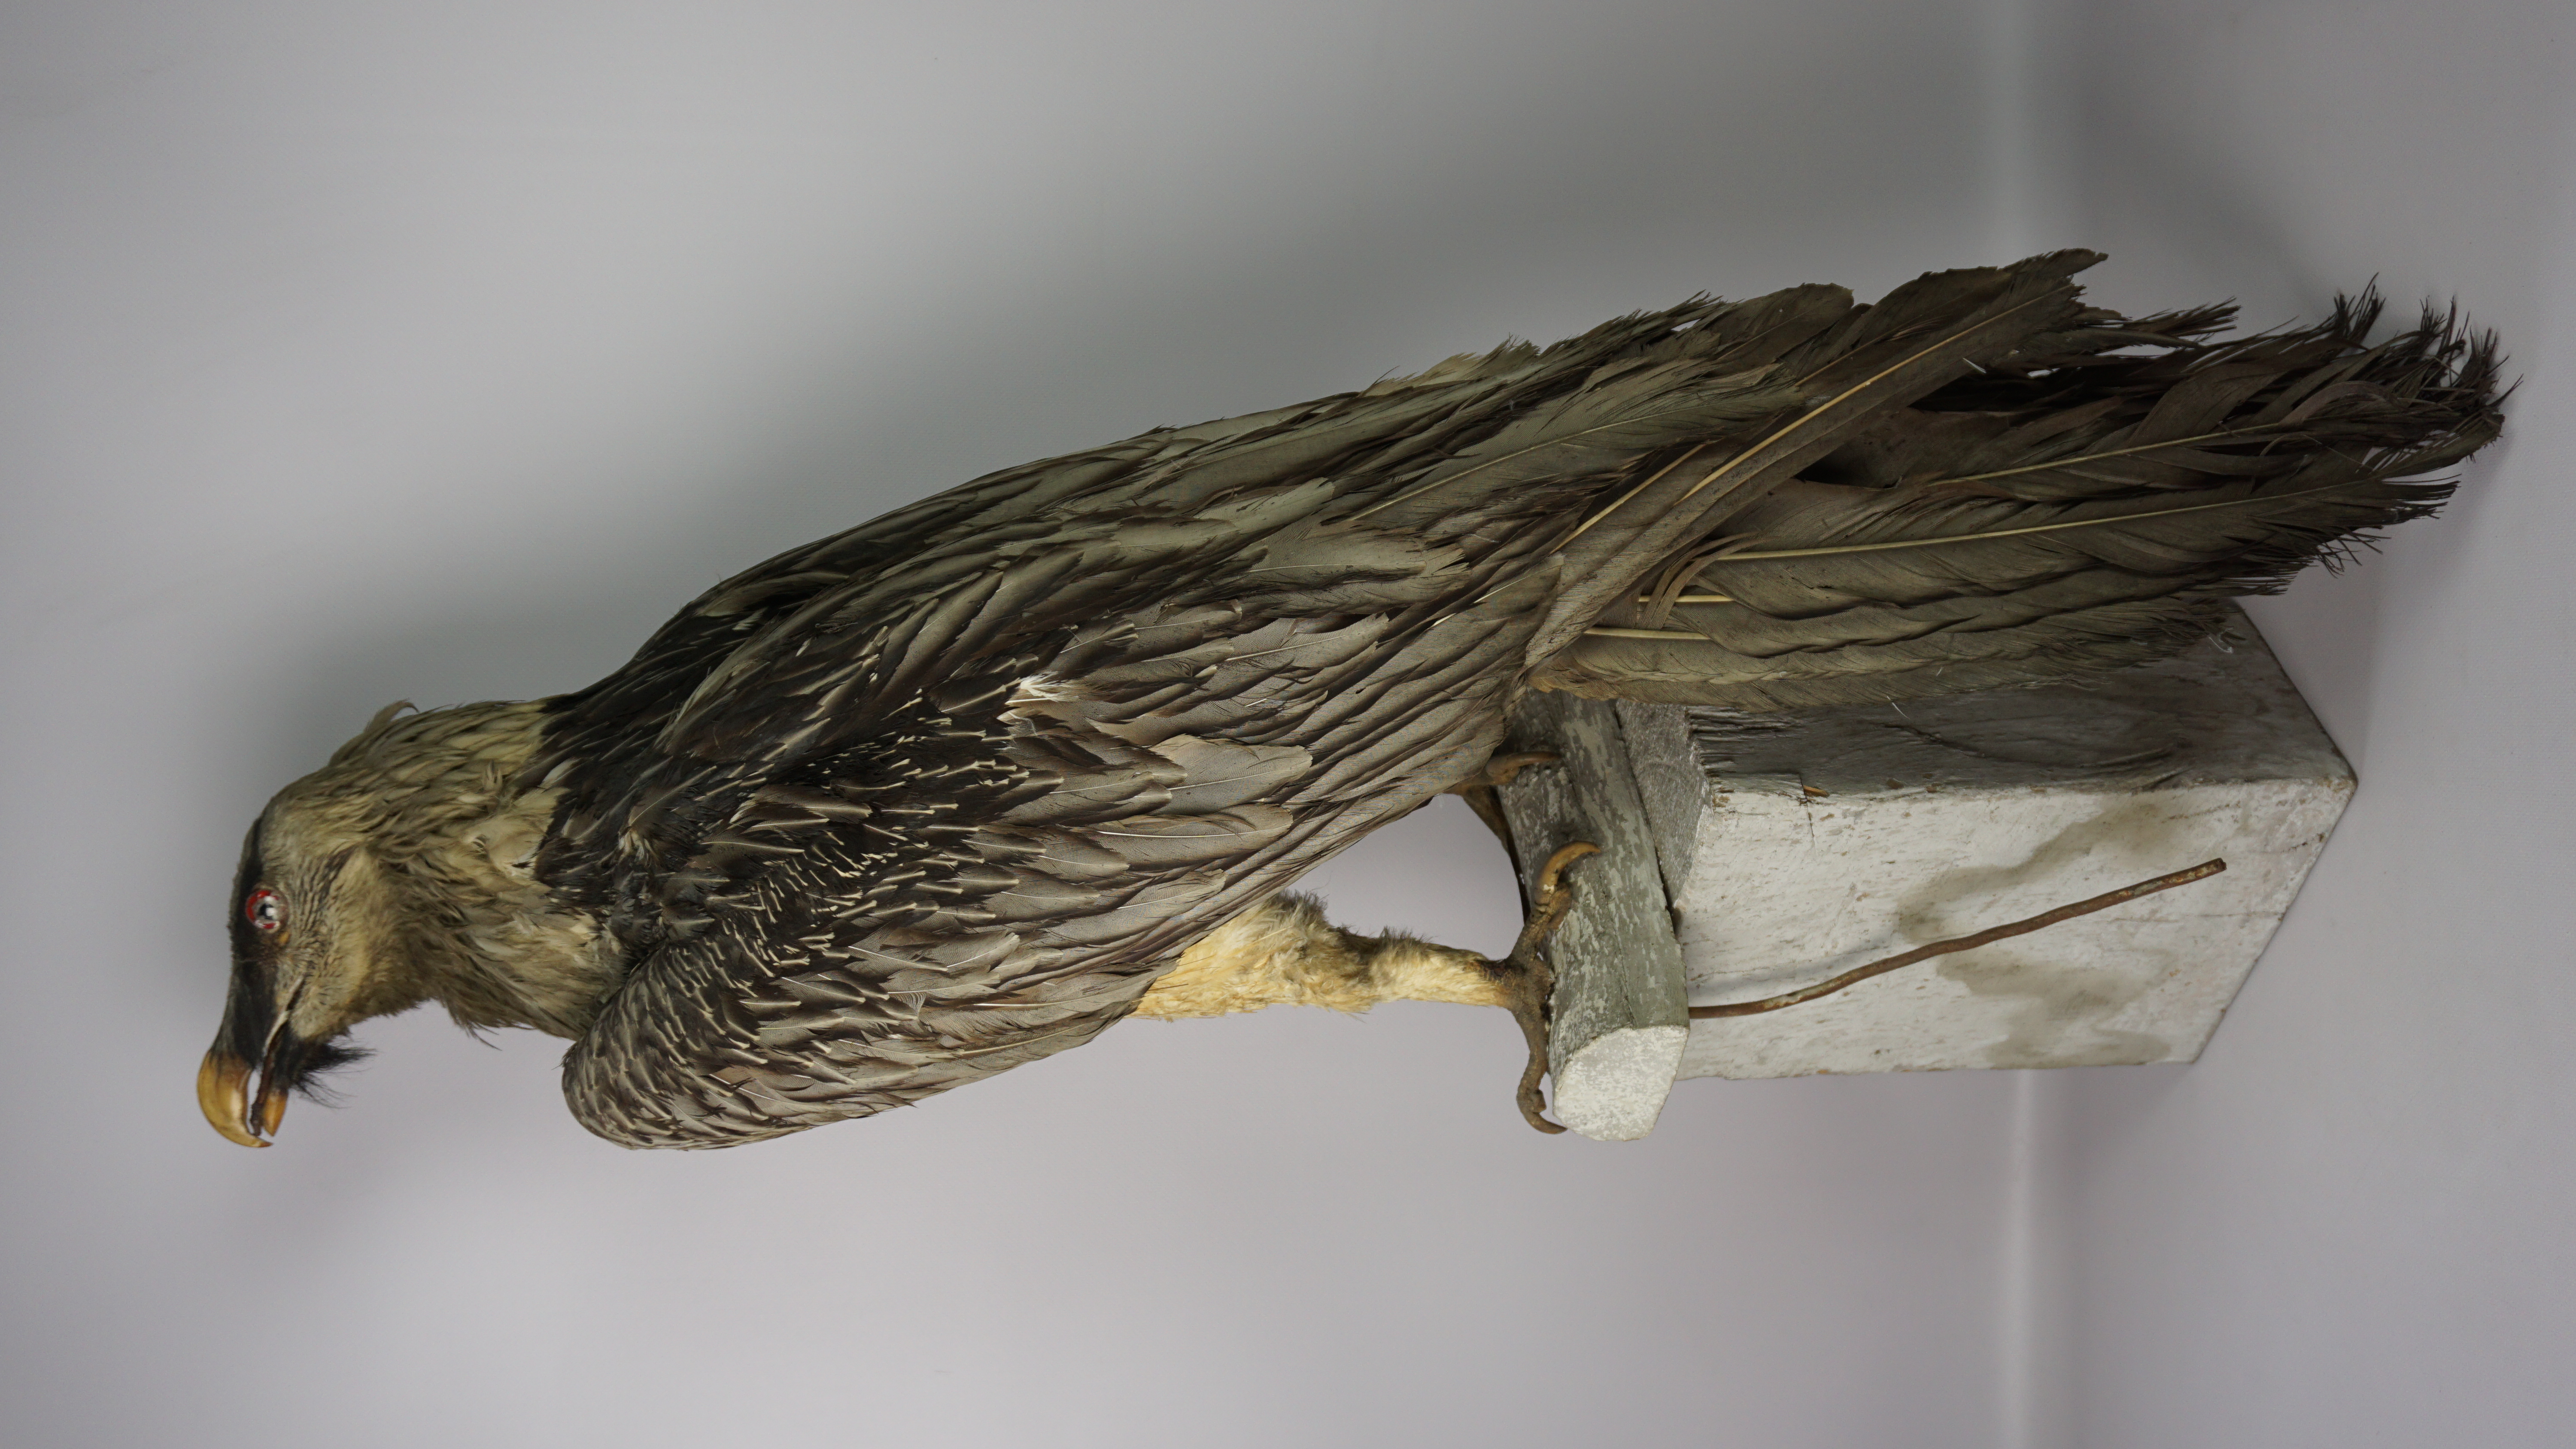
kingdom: Animalia
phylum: Chordata
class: Aves
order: Accipitriformes
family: Accipitridae
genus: Gypaetus
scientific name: Gypaetus barbatus
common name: Bearded vulture
